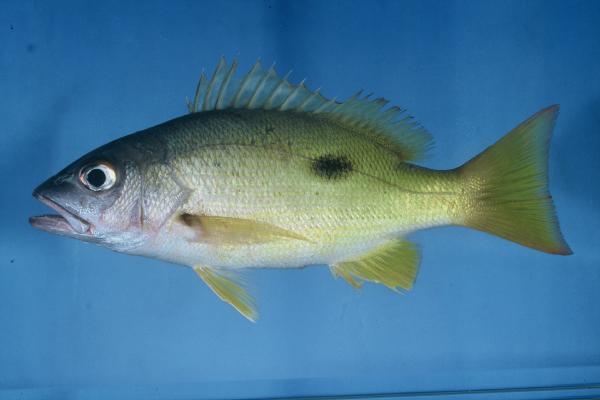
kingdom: Animalia
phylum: Chordata
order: Perciformes
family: Lutjanidae
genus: Lutjanus
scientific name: Lutjanus fulviflamma
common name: Blackspot snapper
